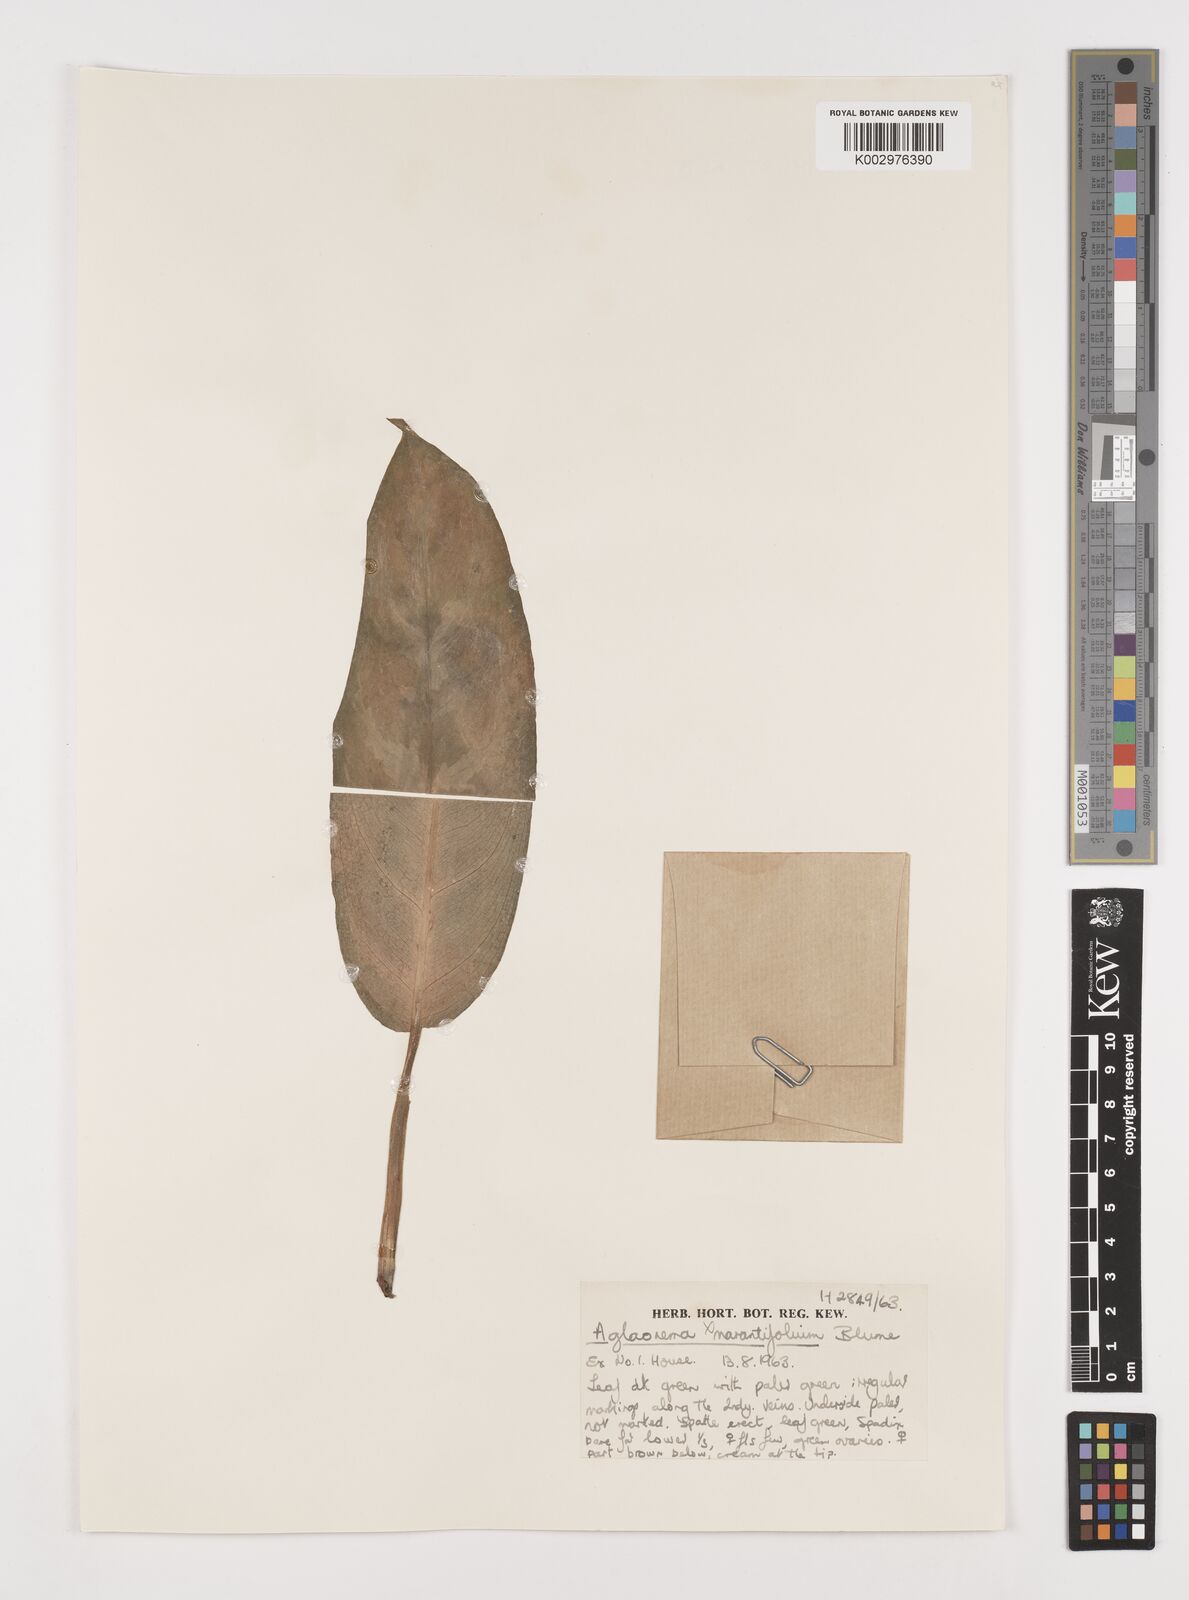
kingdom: Plantae
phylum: Tracheophyta
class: Liliopsida
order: Alismatales
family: Araceae
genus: Aglaonema
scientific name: Aglaonema commutatum
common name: Philippine evergreen
